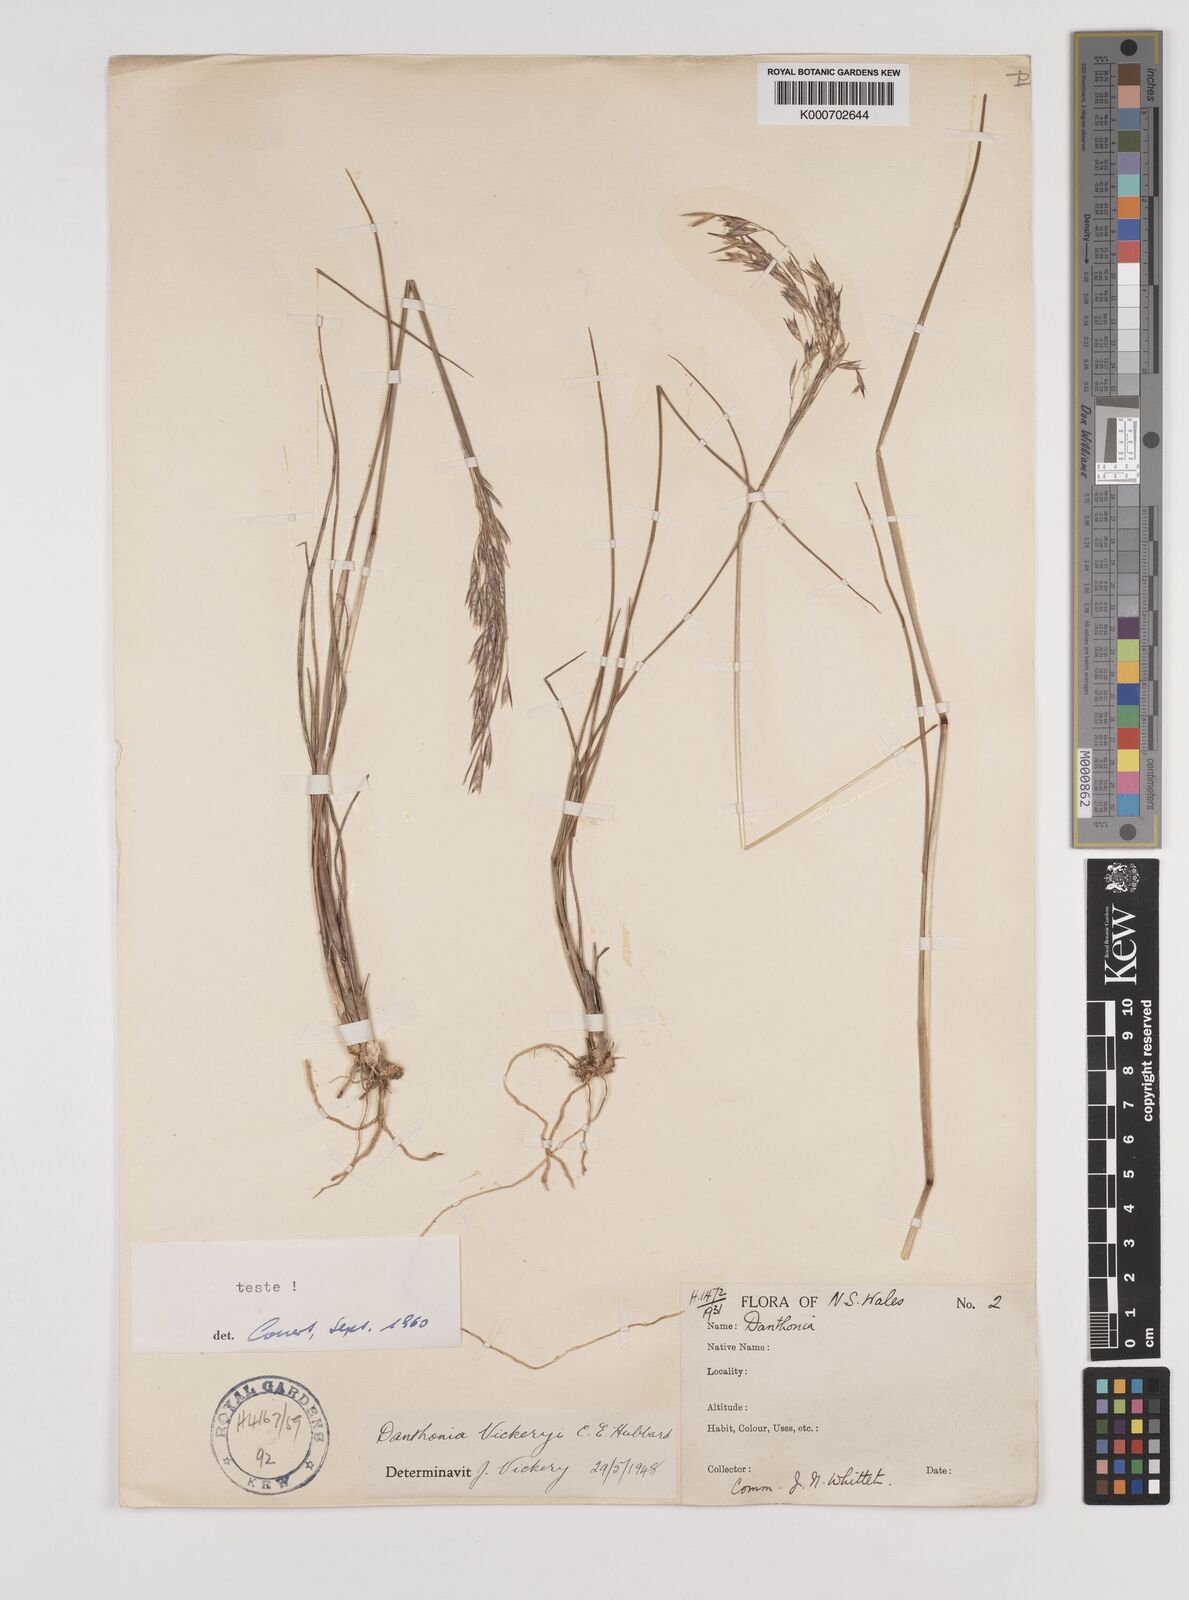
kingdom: Plantae
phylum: Tracheophyta
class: Liliopsida
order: Poales
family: Poaceae
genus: Plinthanthesis
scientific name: Plinthanthesis urvillei
